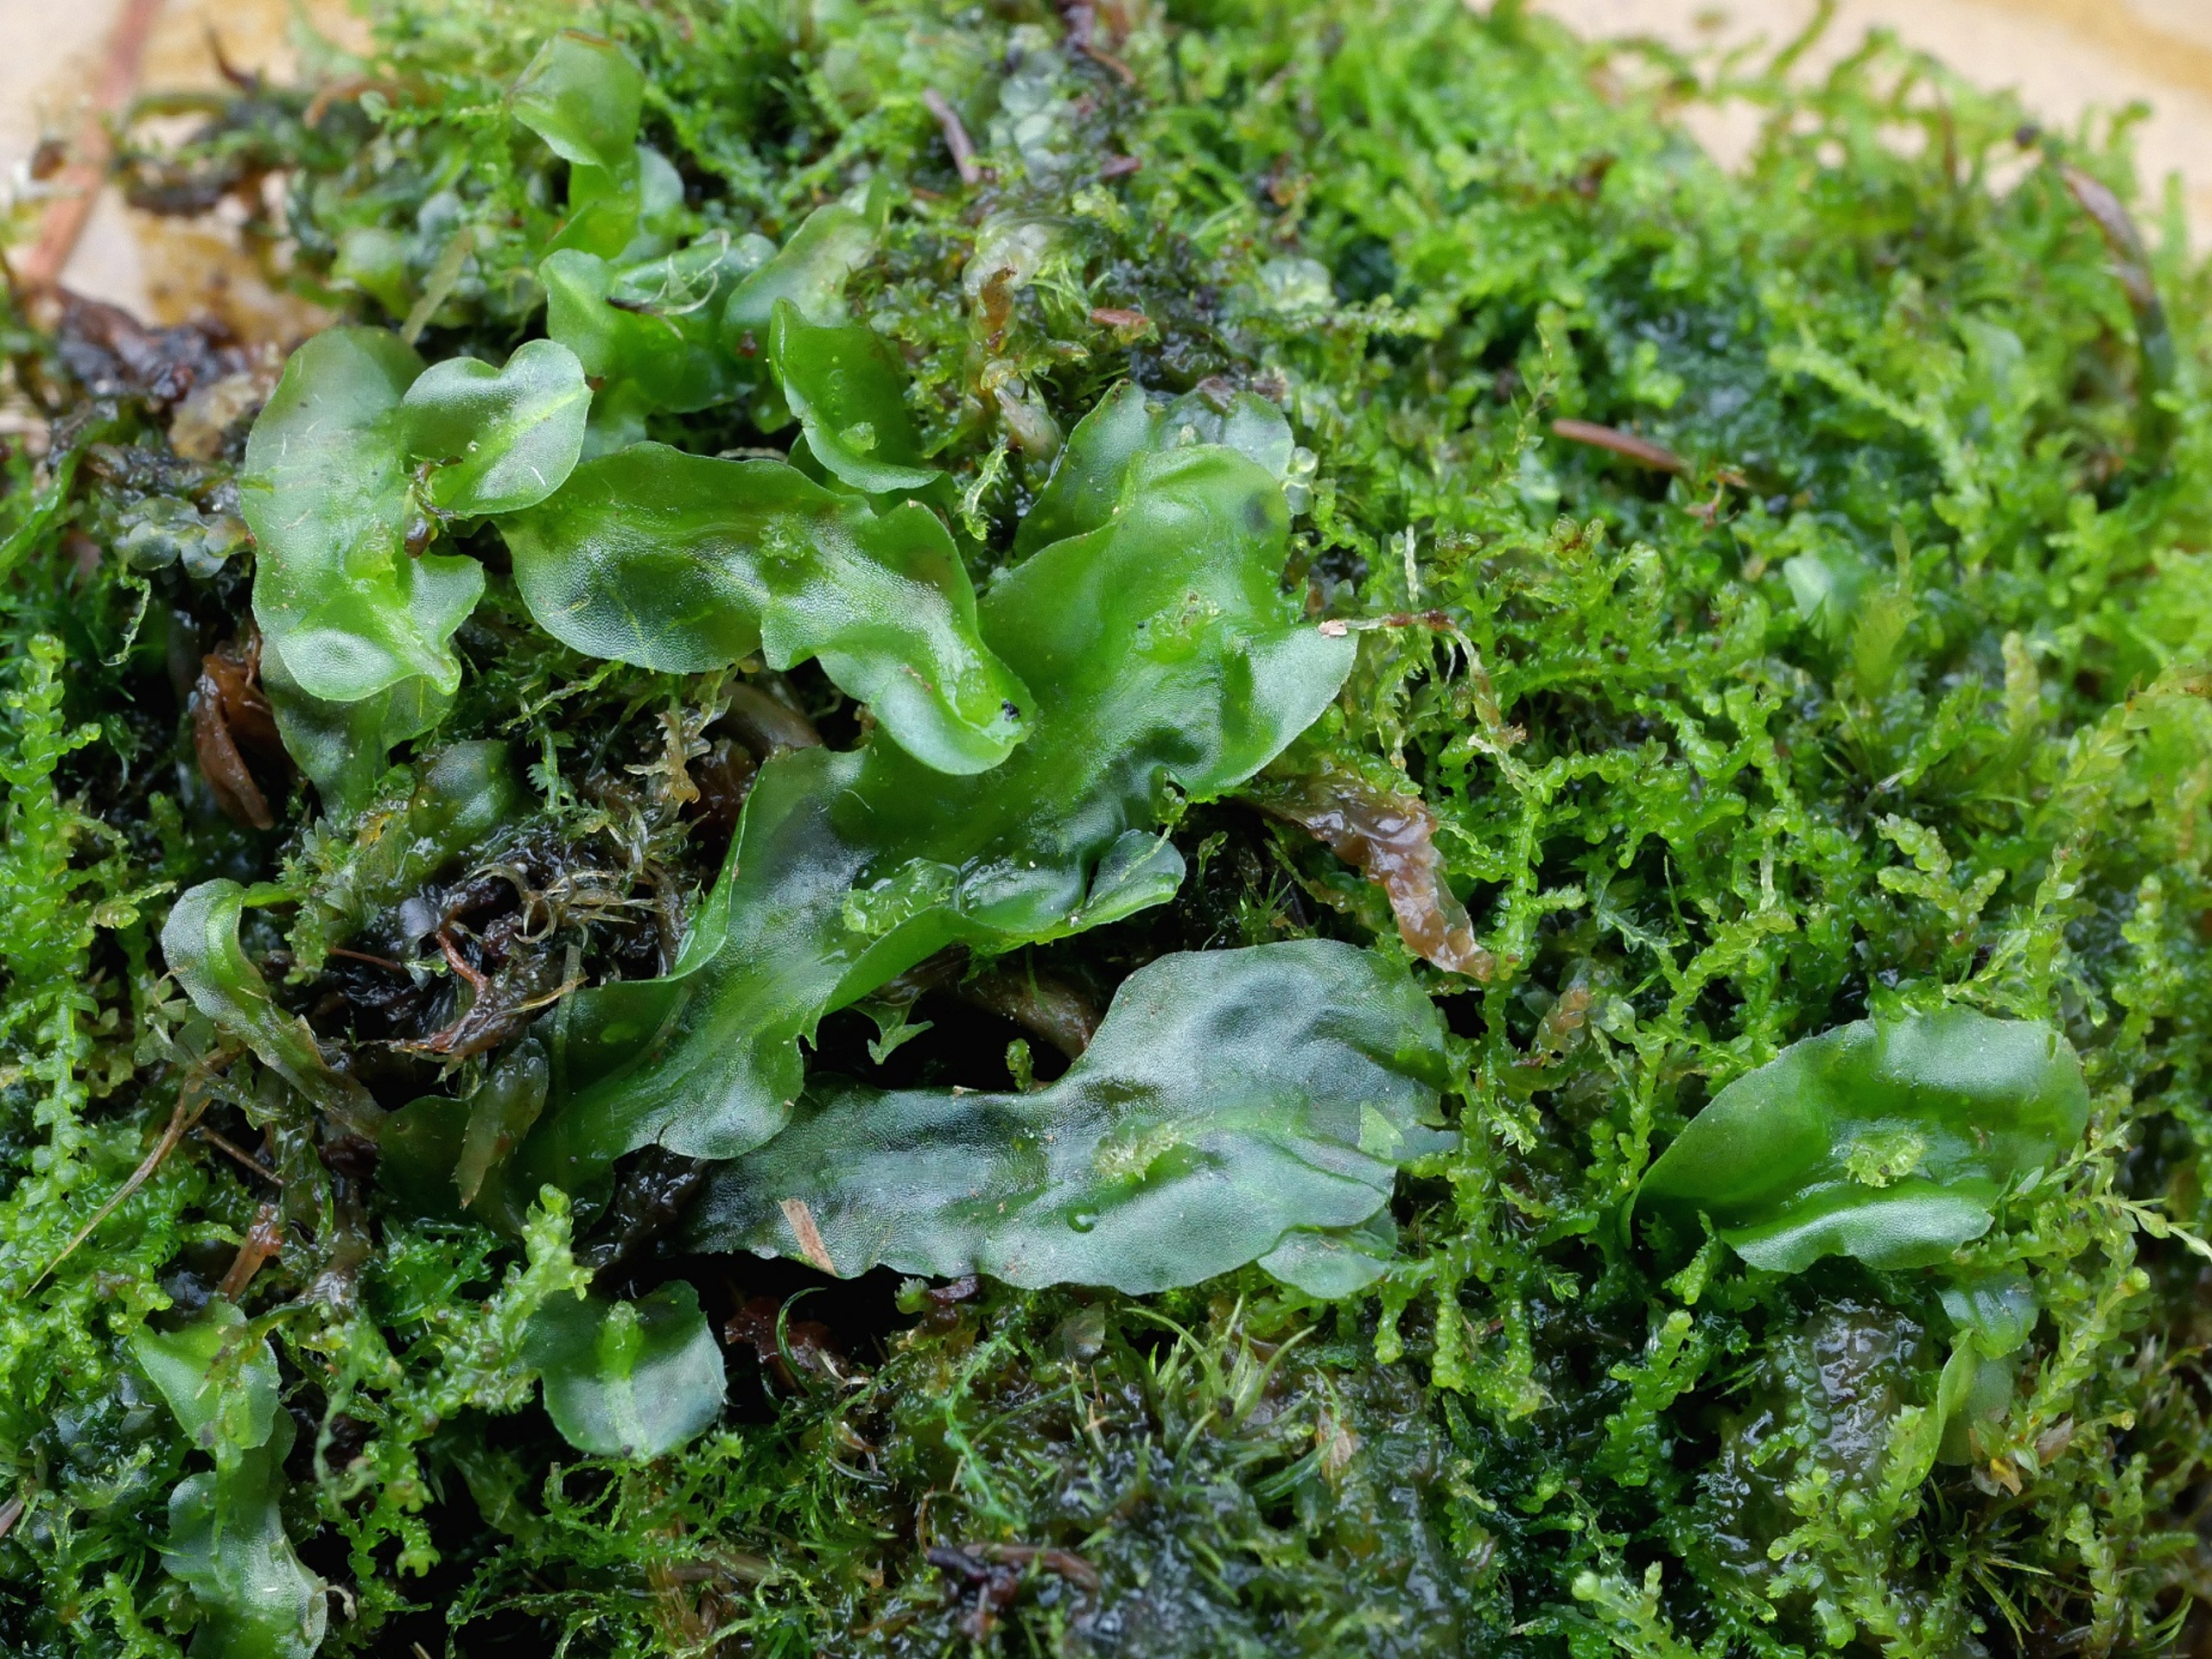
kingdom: Plantae
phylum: Marchantiophyta
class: Jungermanniopsida
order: Pallaviciniales
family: Pallaviciniaceae
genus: Pallavicinia
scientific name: Pallavicinia lyellii
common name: Almindelig strengløv
